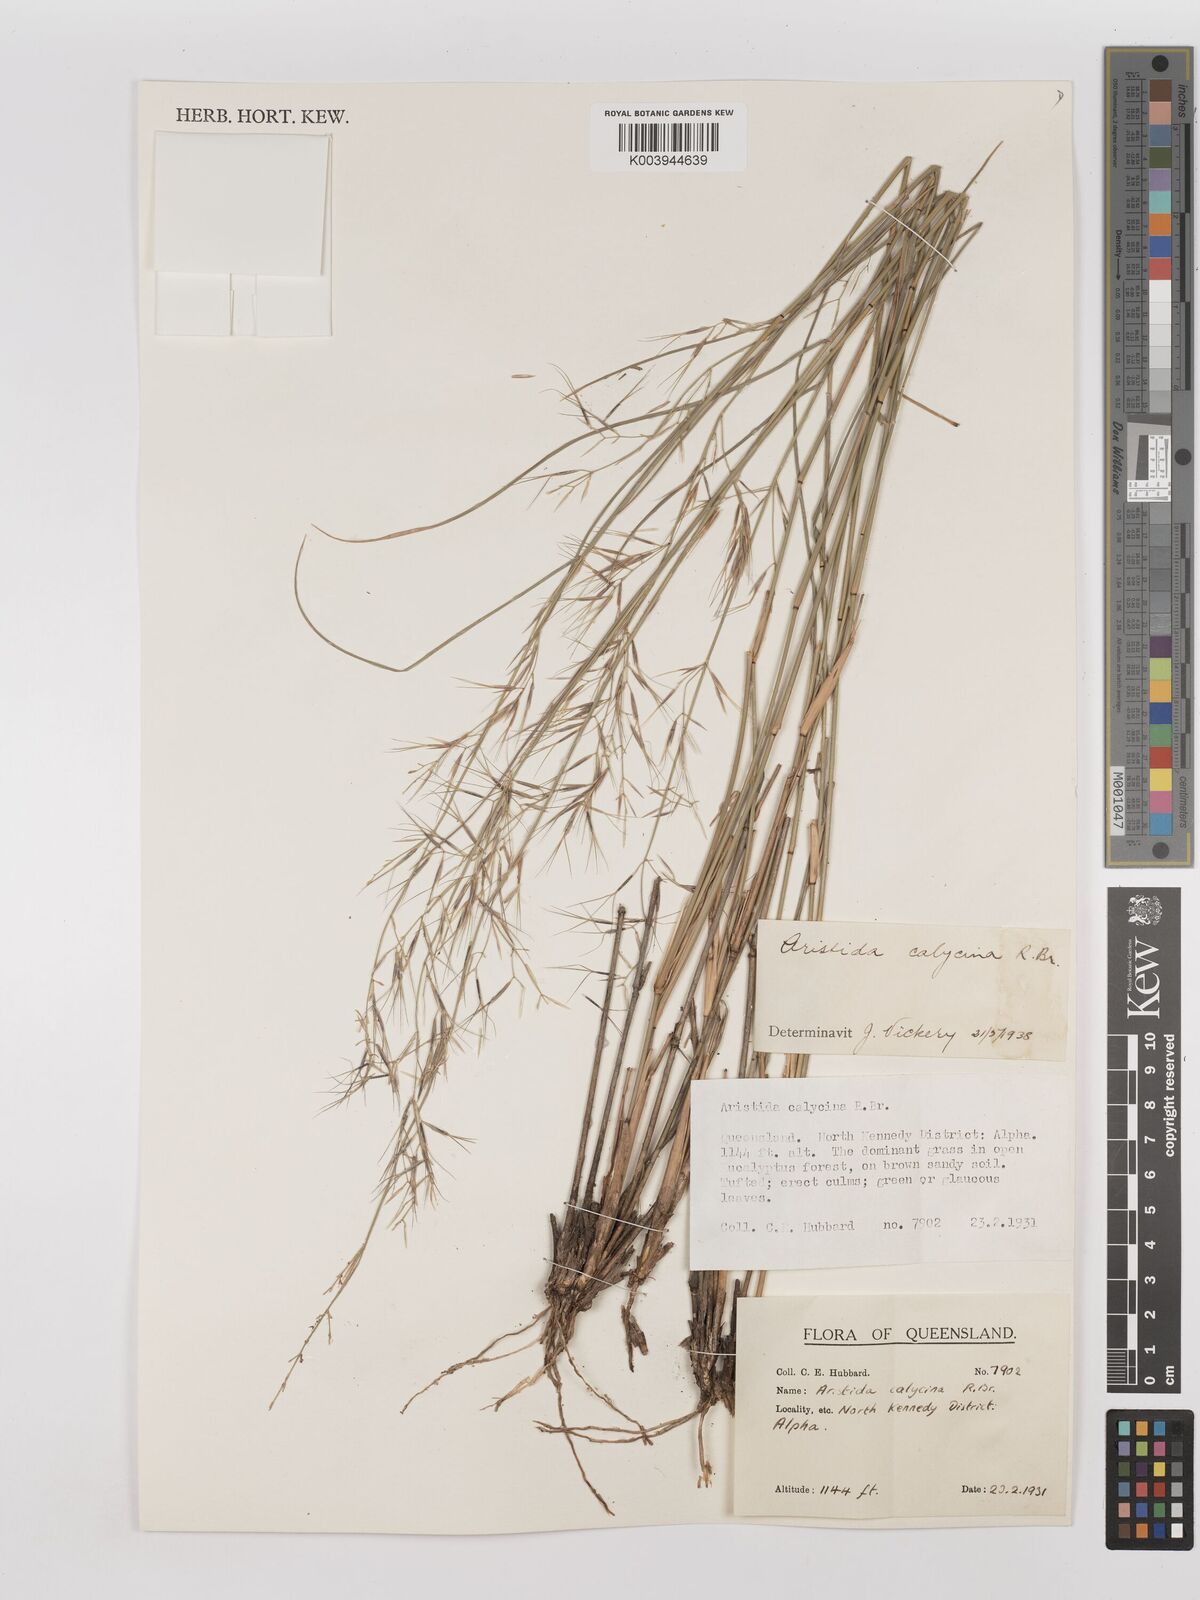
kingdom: Plantae
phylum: Tracheophyta
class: Liliopsida
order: Poales
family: Poaceae
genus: Aristida
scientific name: Aristida calycina
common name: Dark wire grass
